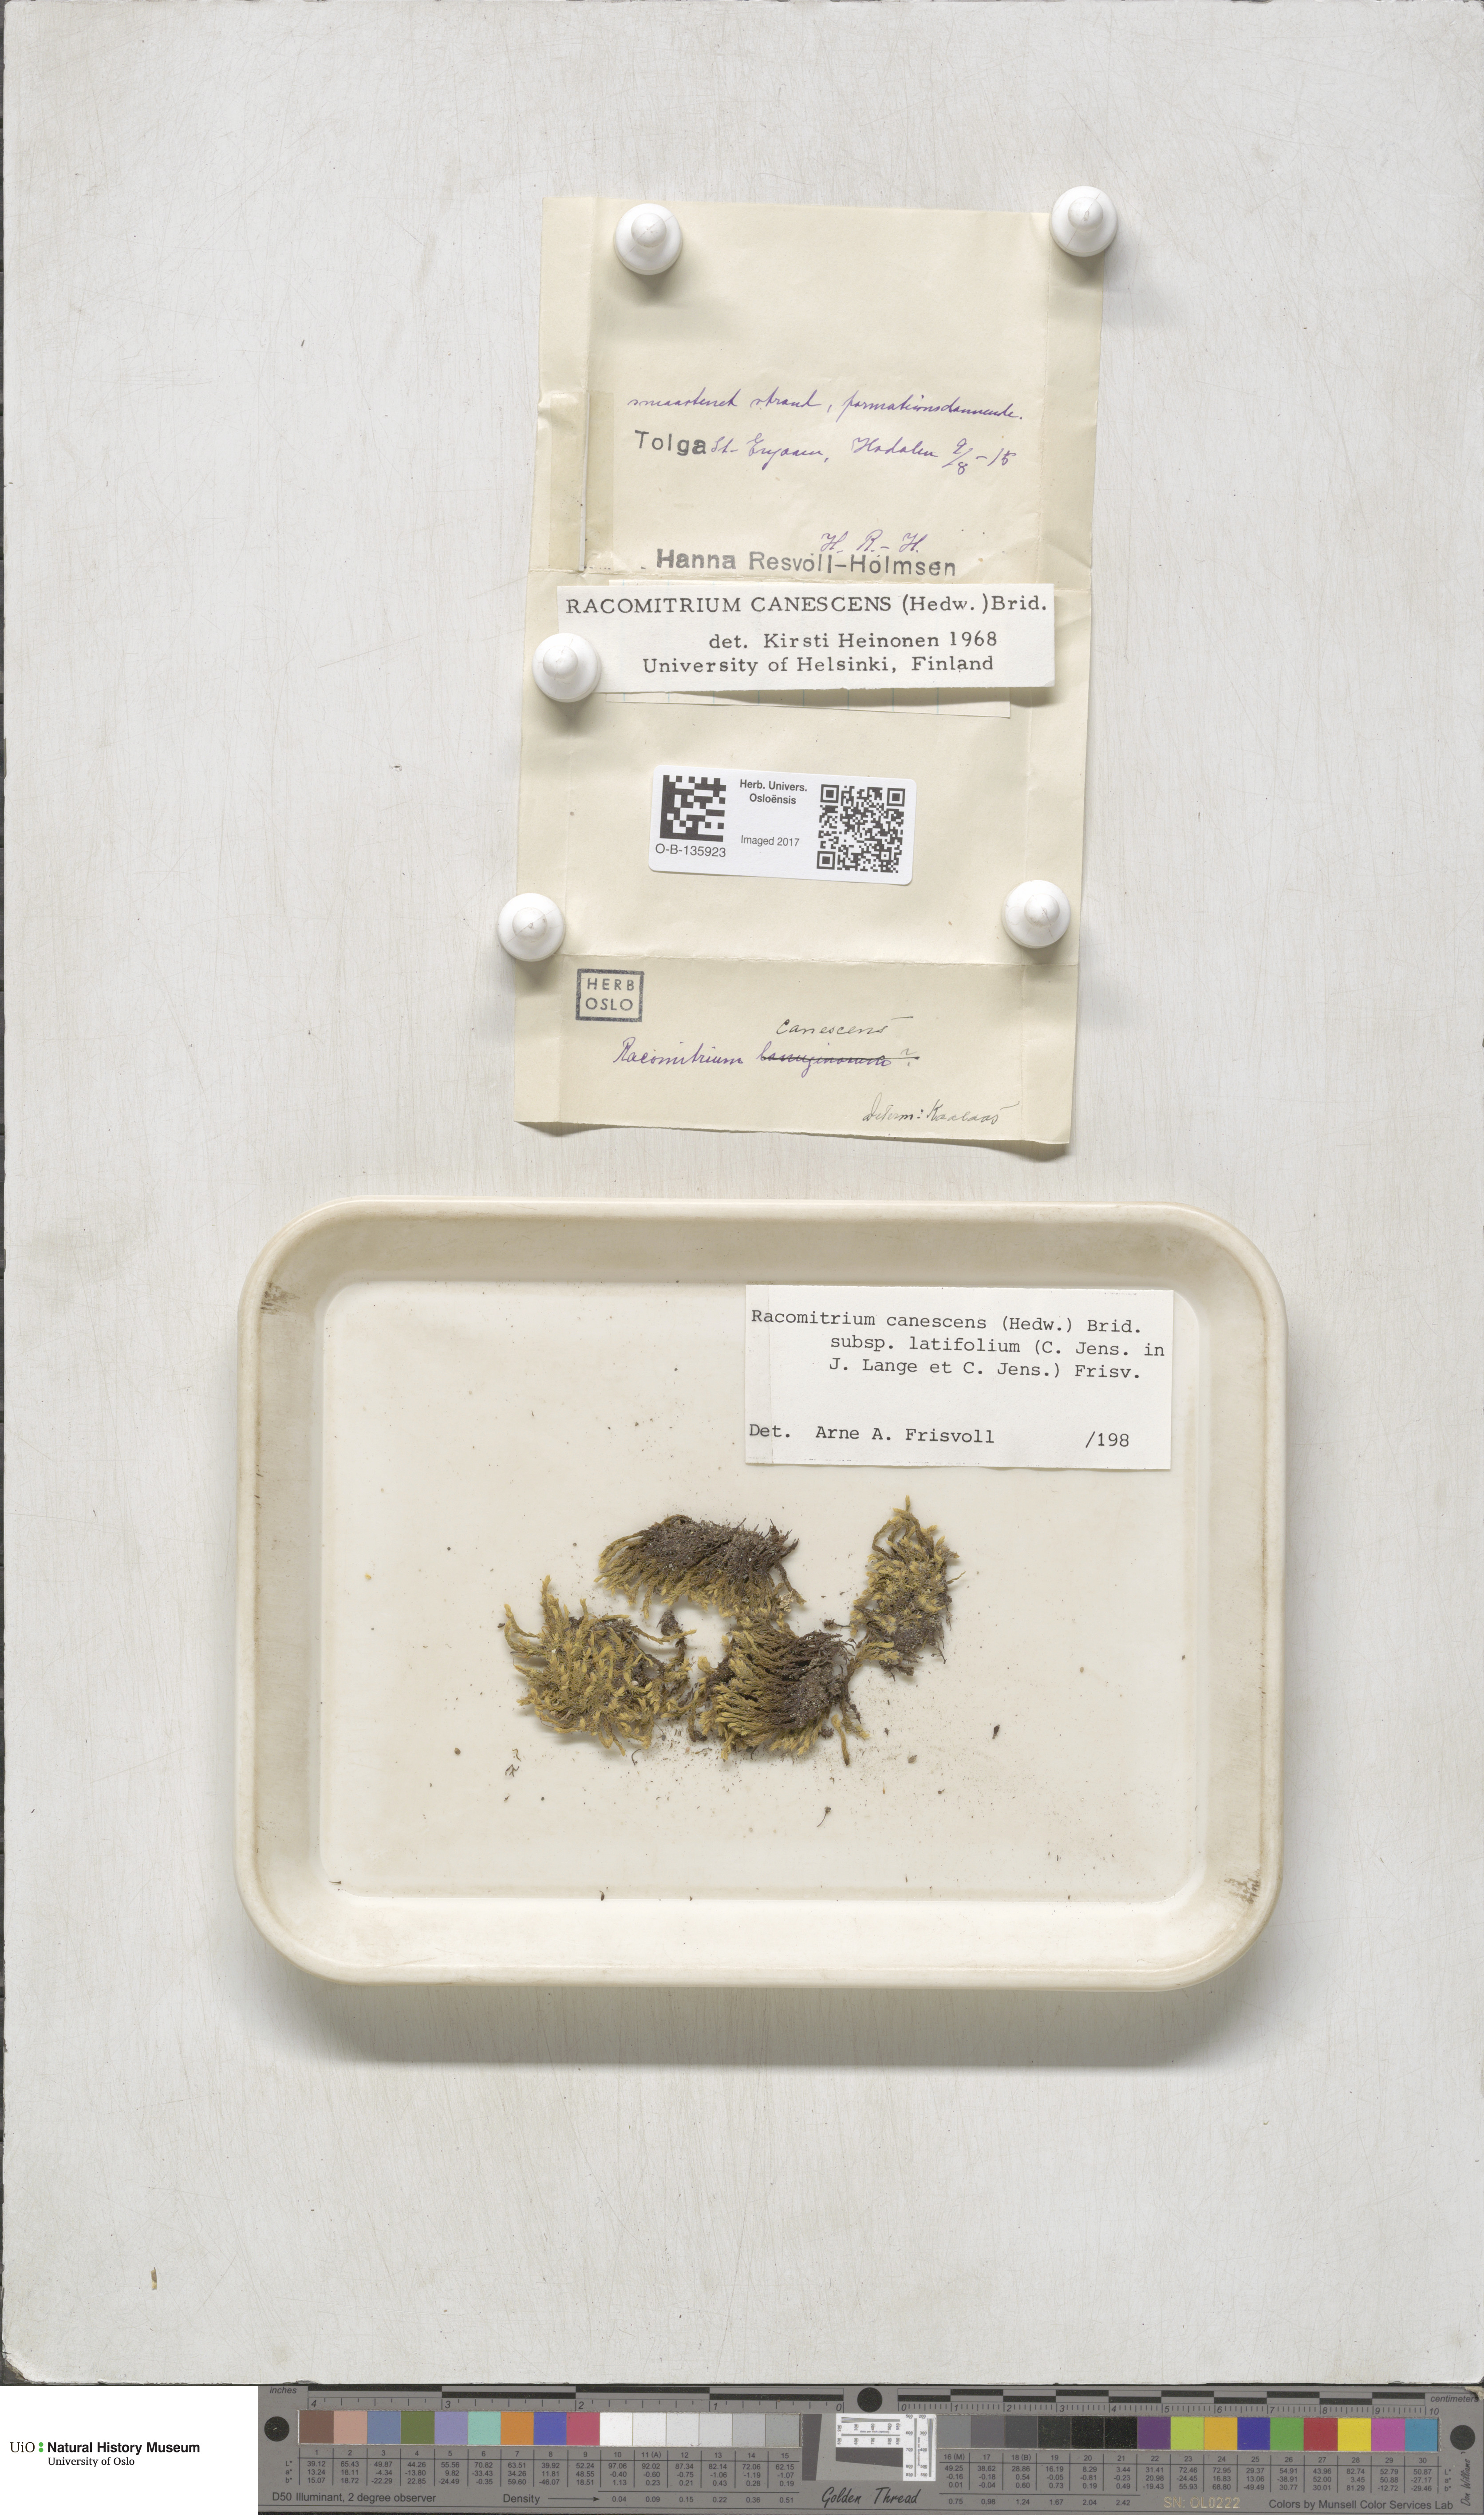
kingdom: Plantae
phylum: Bryophyta
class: Bryopsida
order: Grimmiales
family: Grimmiaceae
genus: Niphotrichum
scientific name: Niphotrichum canescens
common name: Hoary fringe-moss
